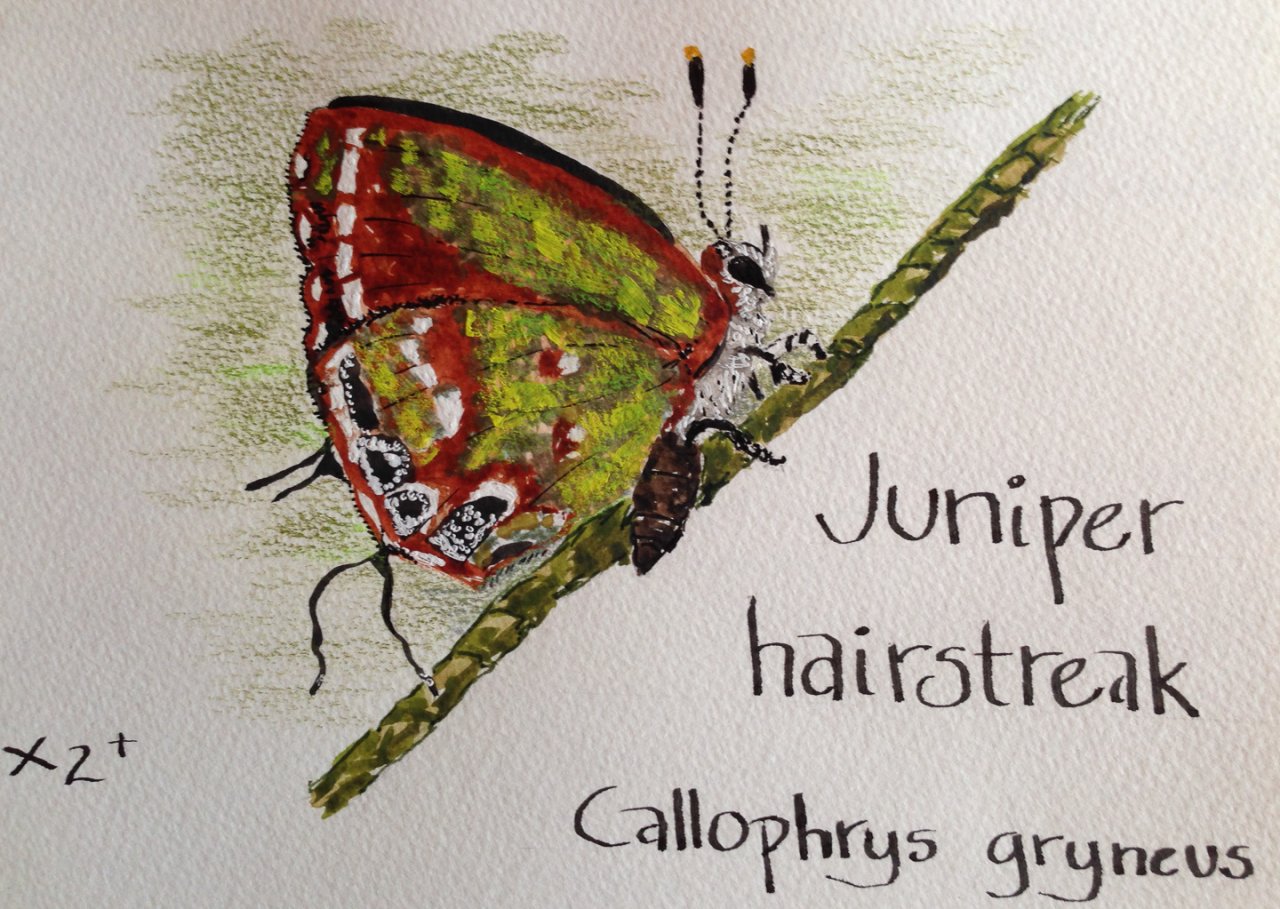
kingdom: Animalia
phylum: Arthropoda
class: Insecta
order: Lepidoptera
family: Lycaenidae
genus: Mitoura
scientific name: Mitoura gryneus
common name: Juniper Hairstreak
